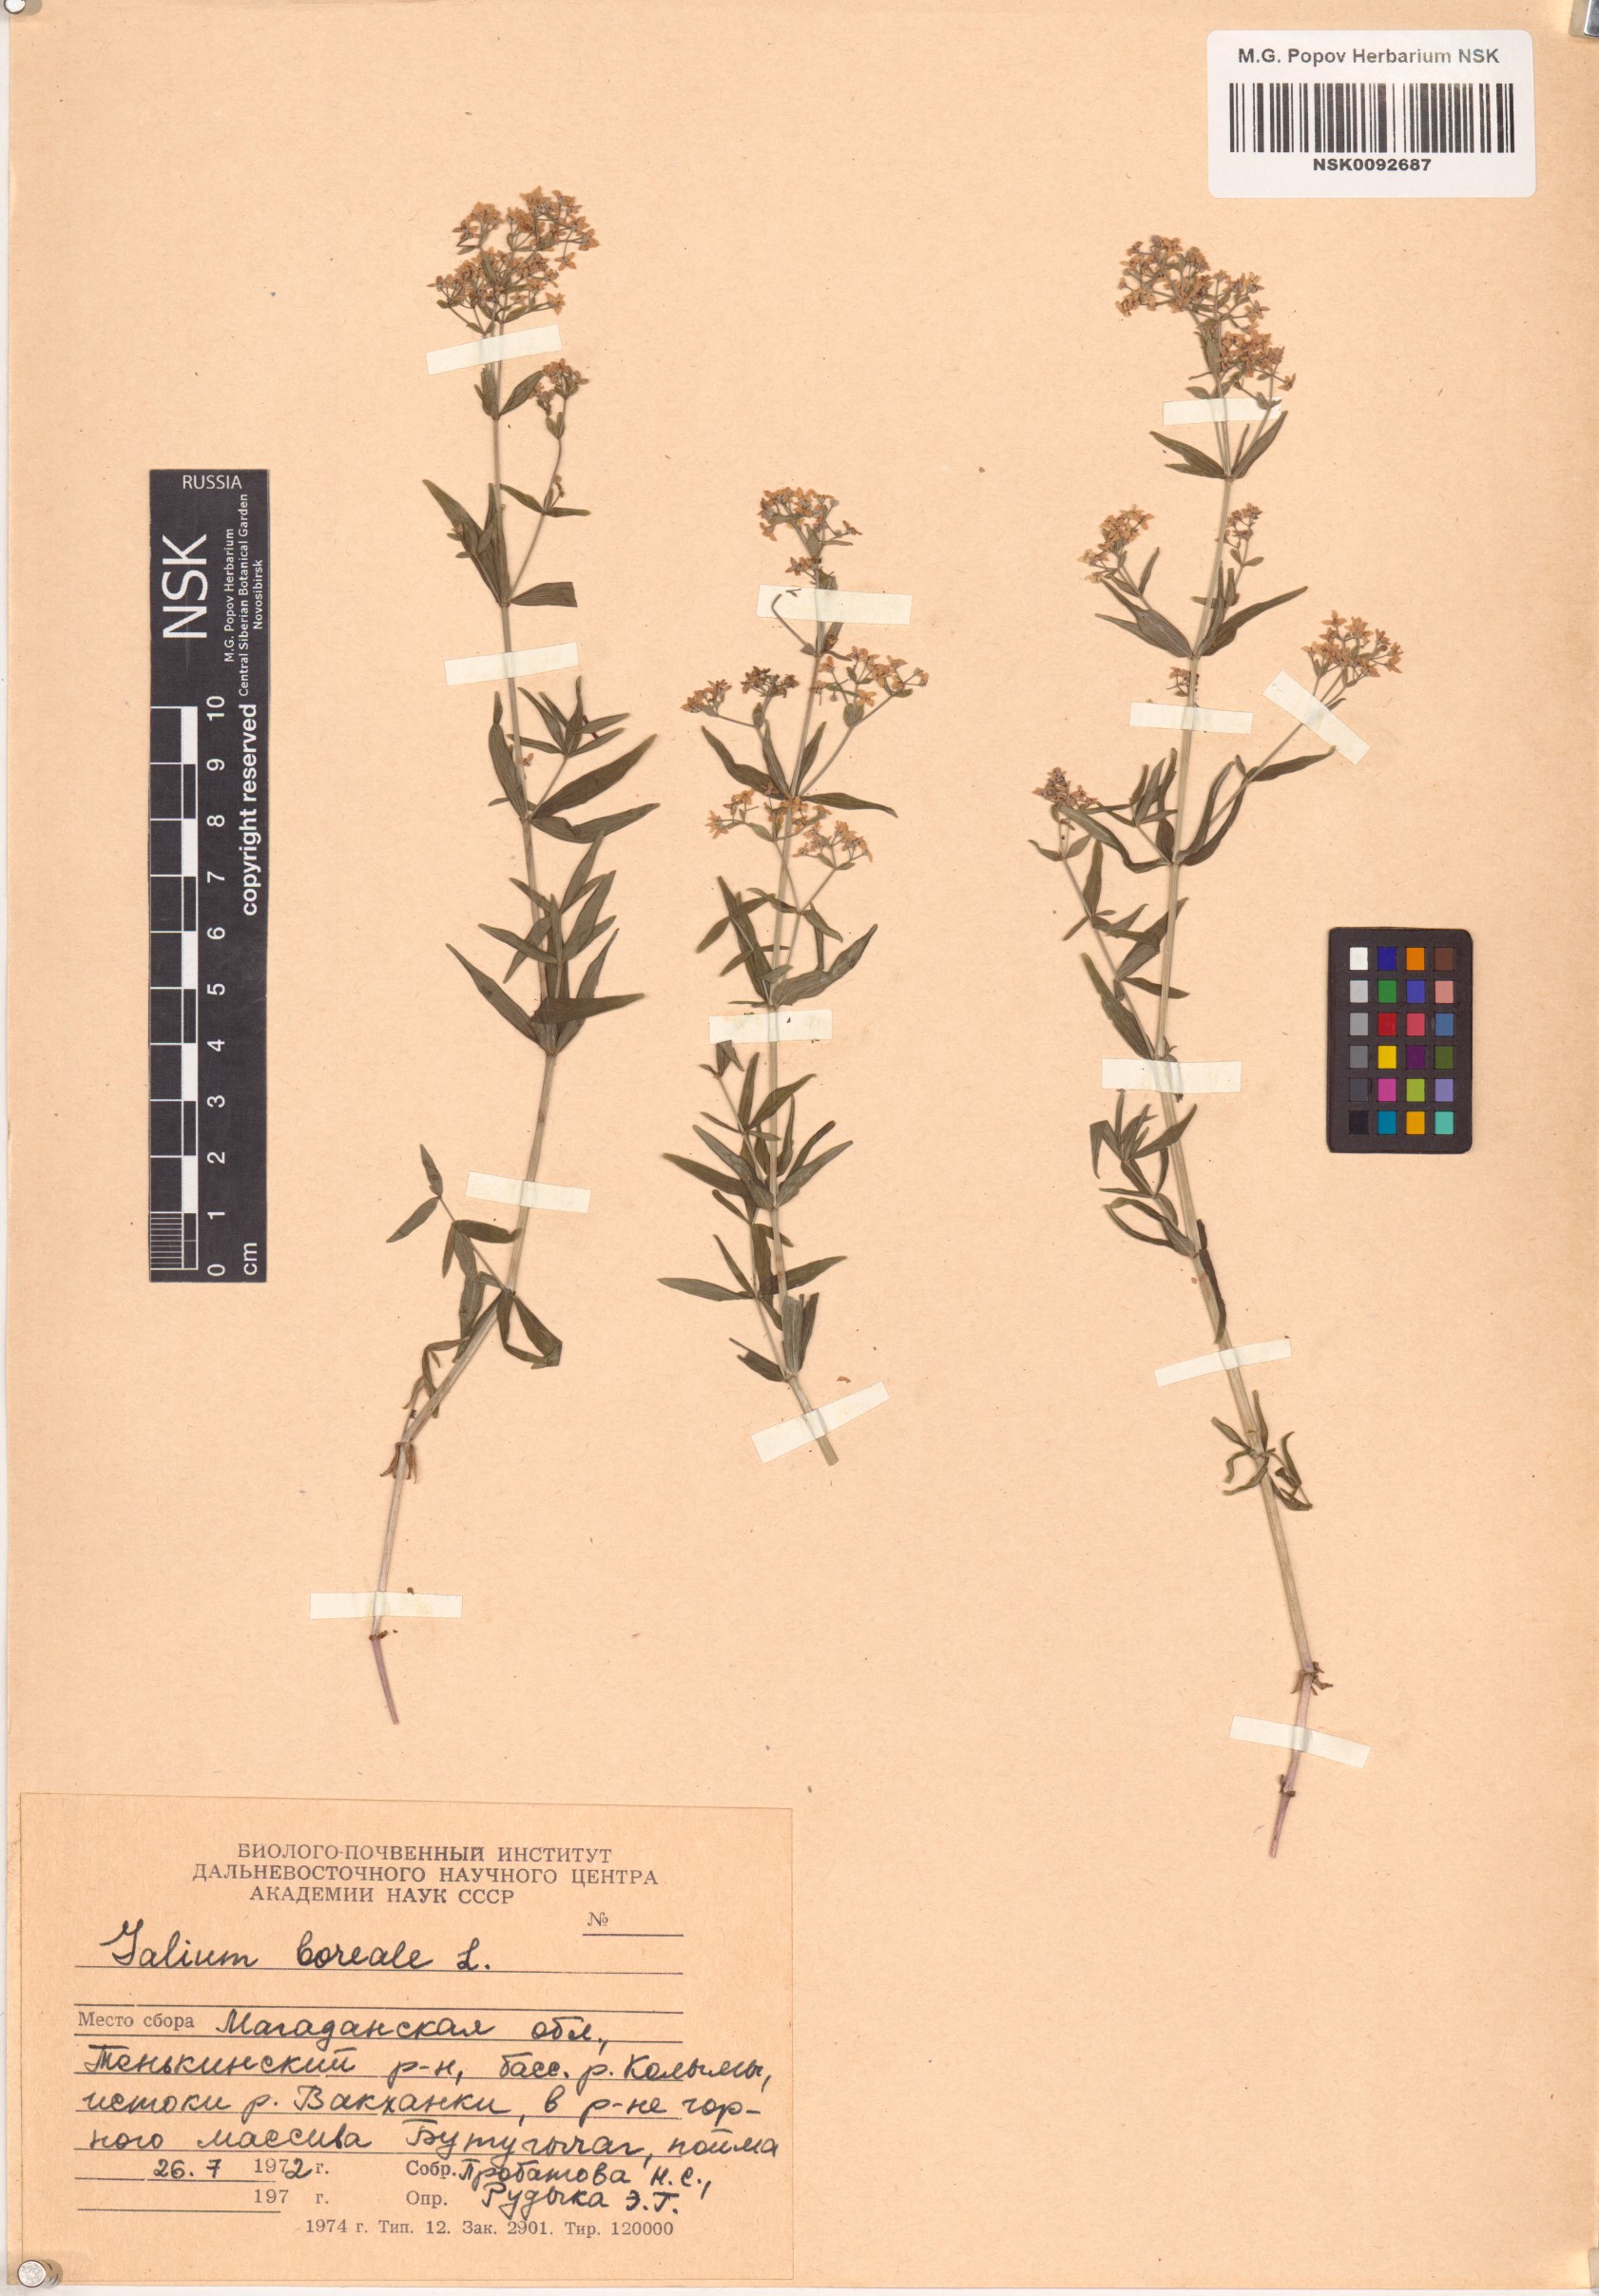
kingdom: Plantae
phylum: Tracheophyta
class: Magnoliopsida
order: Gentianales
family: Rubiaceae
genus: Galium
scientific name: Galium boreale
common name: Northern bedstraw
